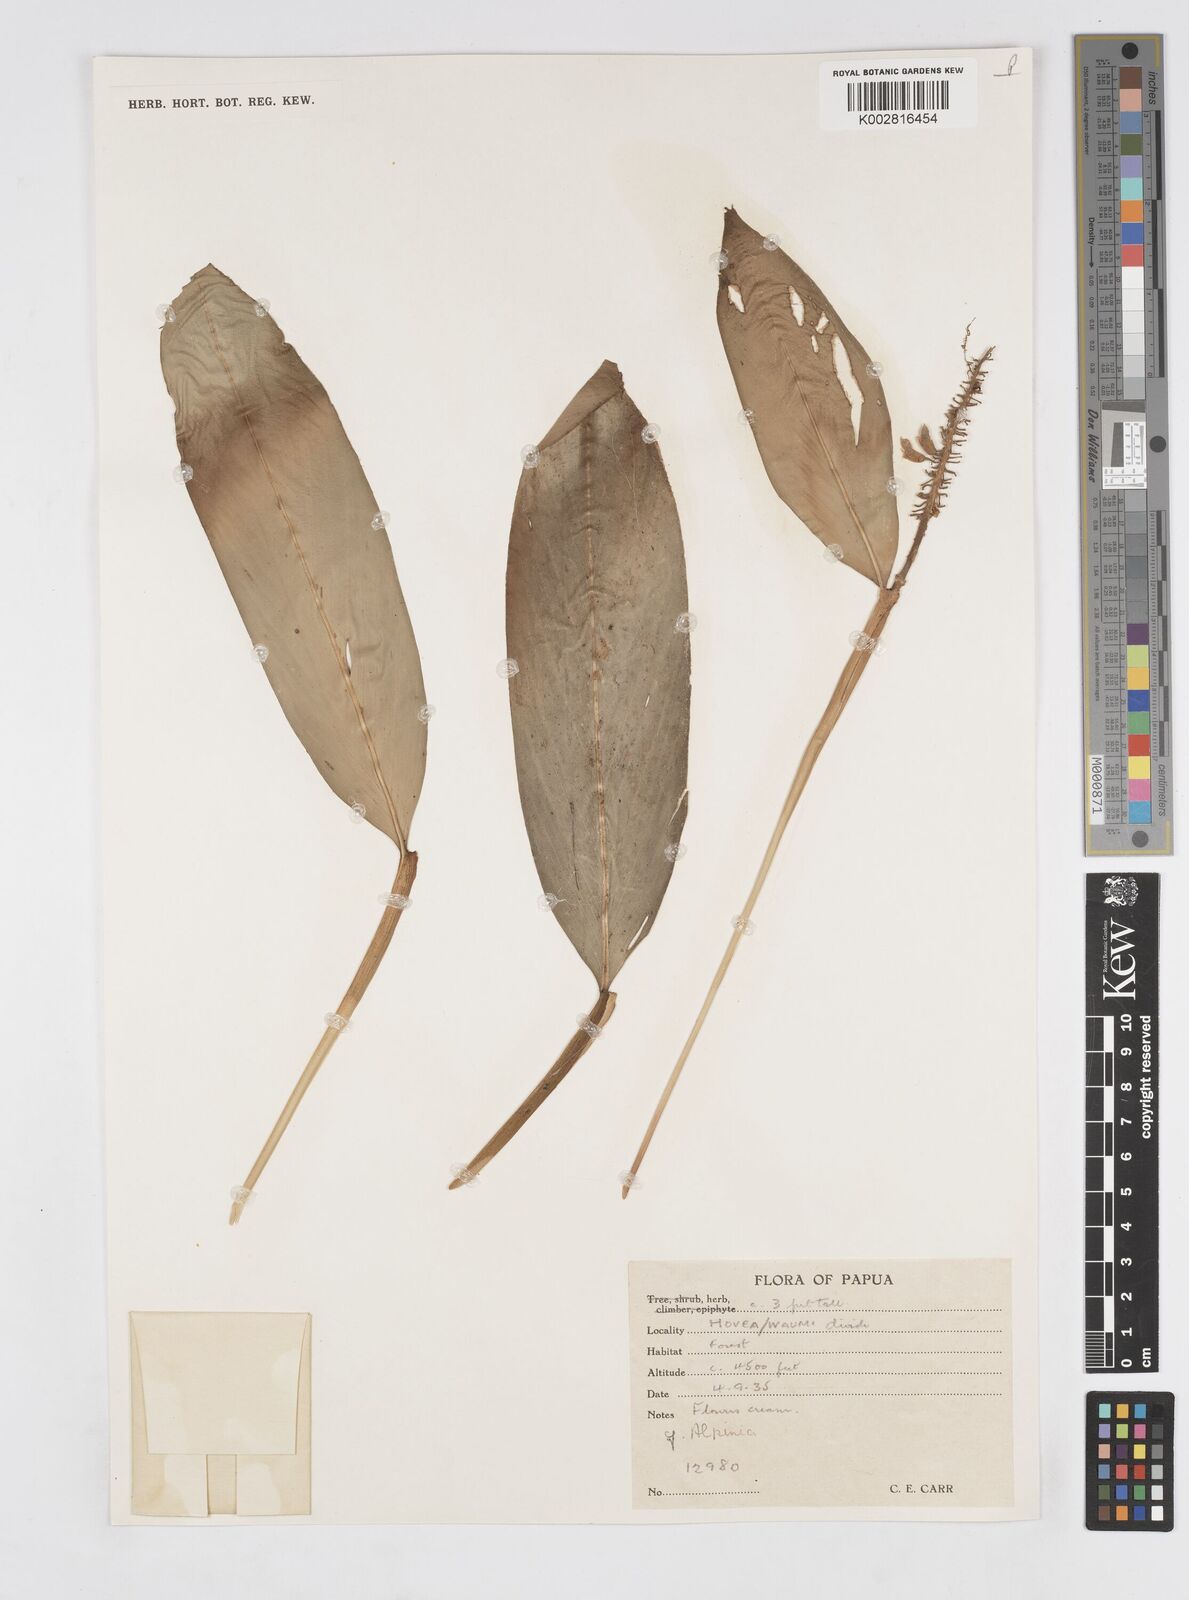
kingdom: Plantae
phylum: Tracheophyta
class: Liliopsida
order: Zingiberales
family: Zingiberaceae
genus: Alpinia
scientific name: Alpinia
